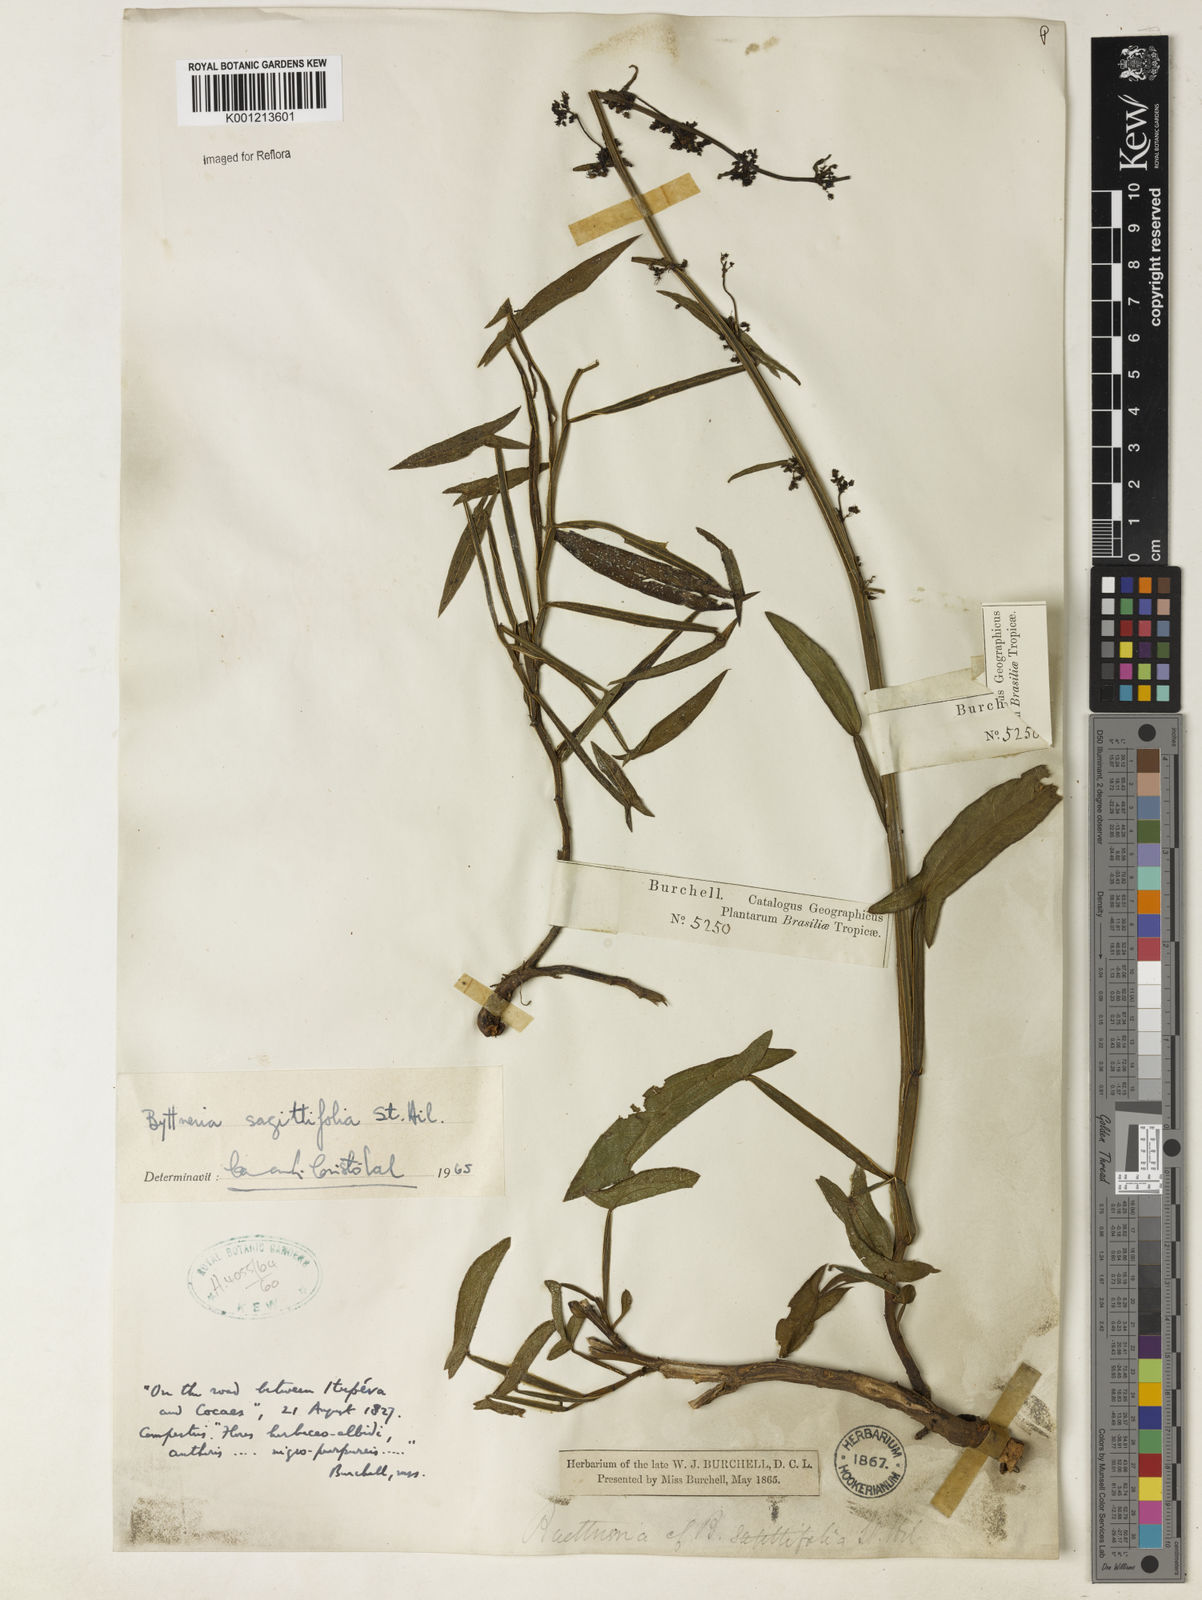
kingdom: Plantae
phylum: Tracheophyta
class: Magnoliopsida
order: Malvales
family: Malvaceae
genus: Byttneria
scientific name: Byttneria sagittifolia
